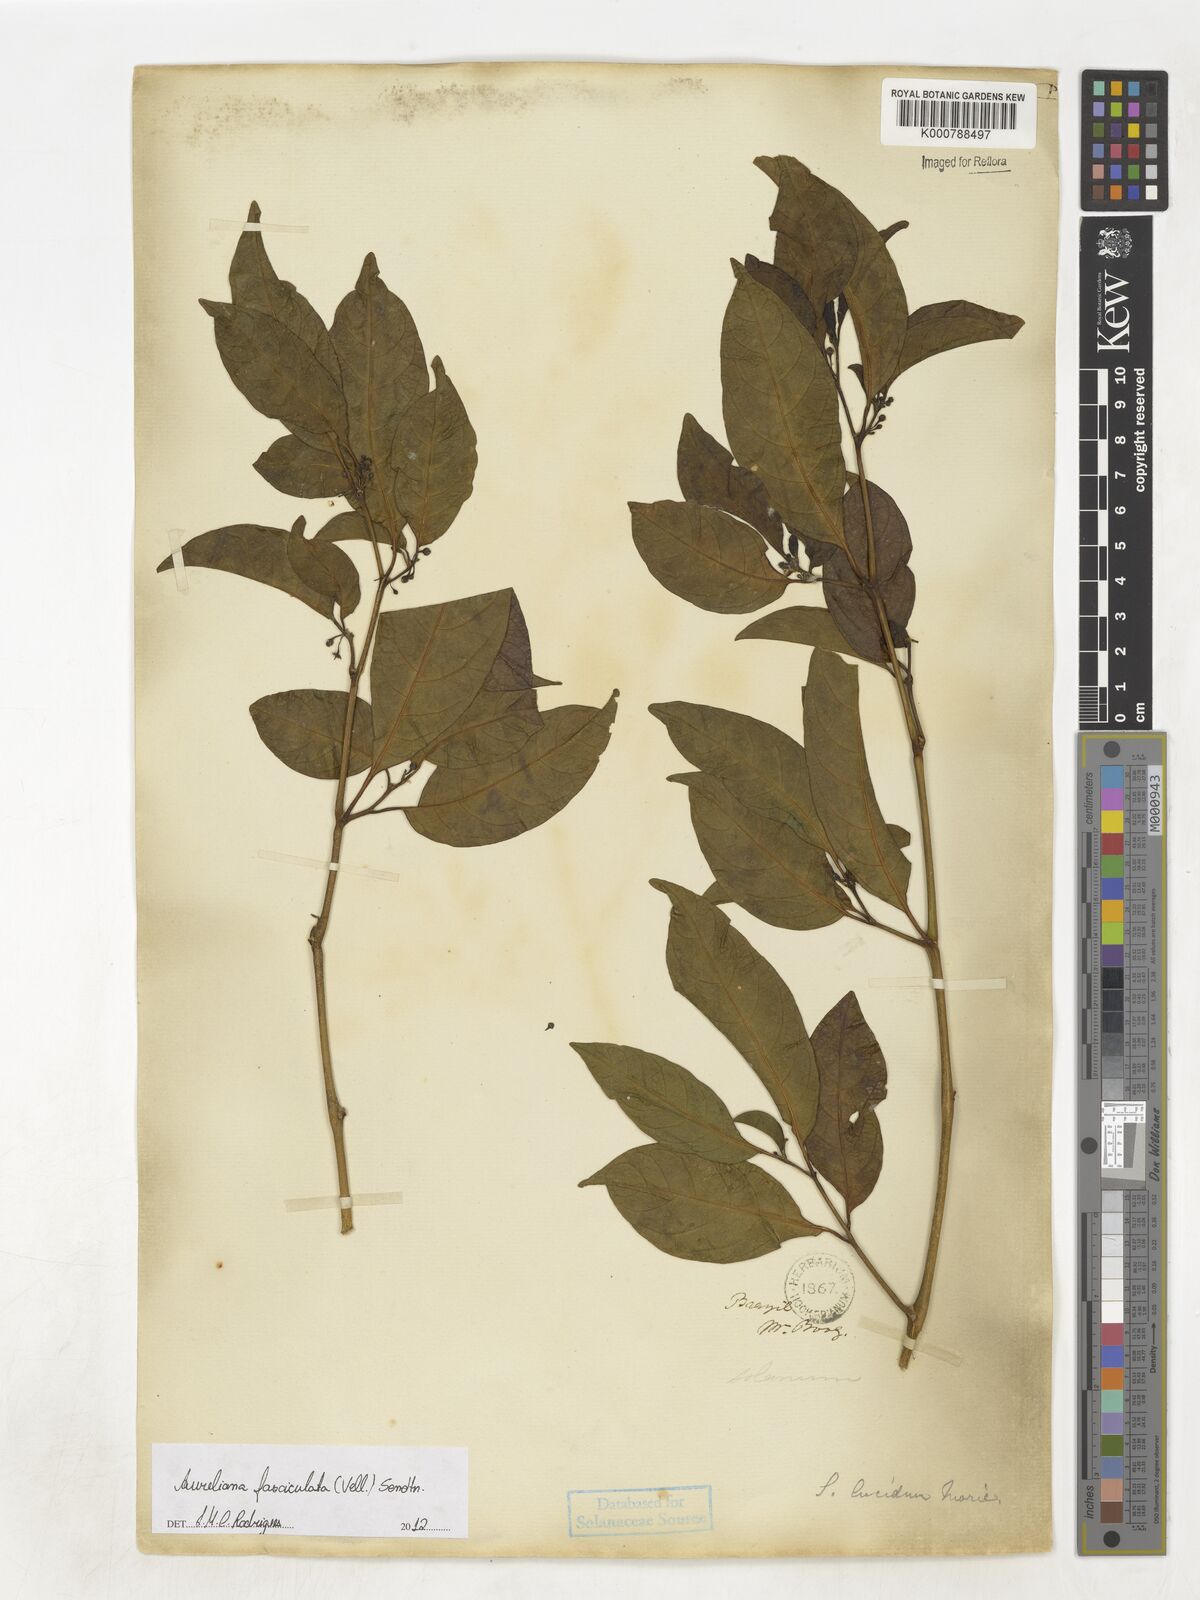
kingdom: Plantae
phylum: Tracheophyta
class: Magnoliopsida
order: Solanales
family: Solanaceae
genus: Athenaea
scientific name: Athenaea fasciculata
